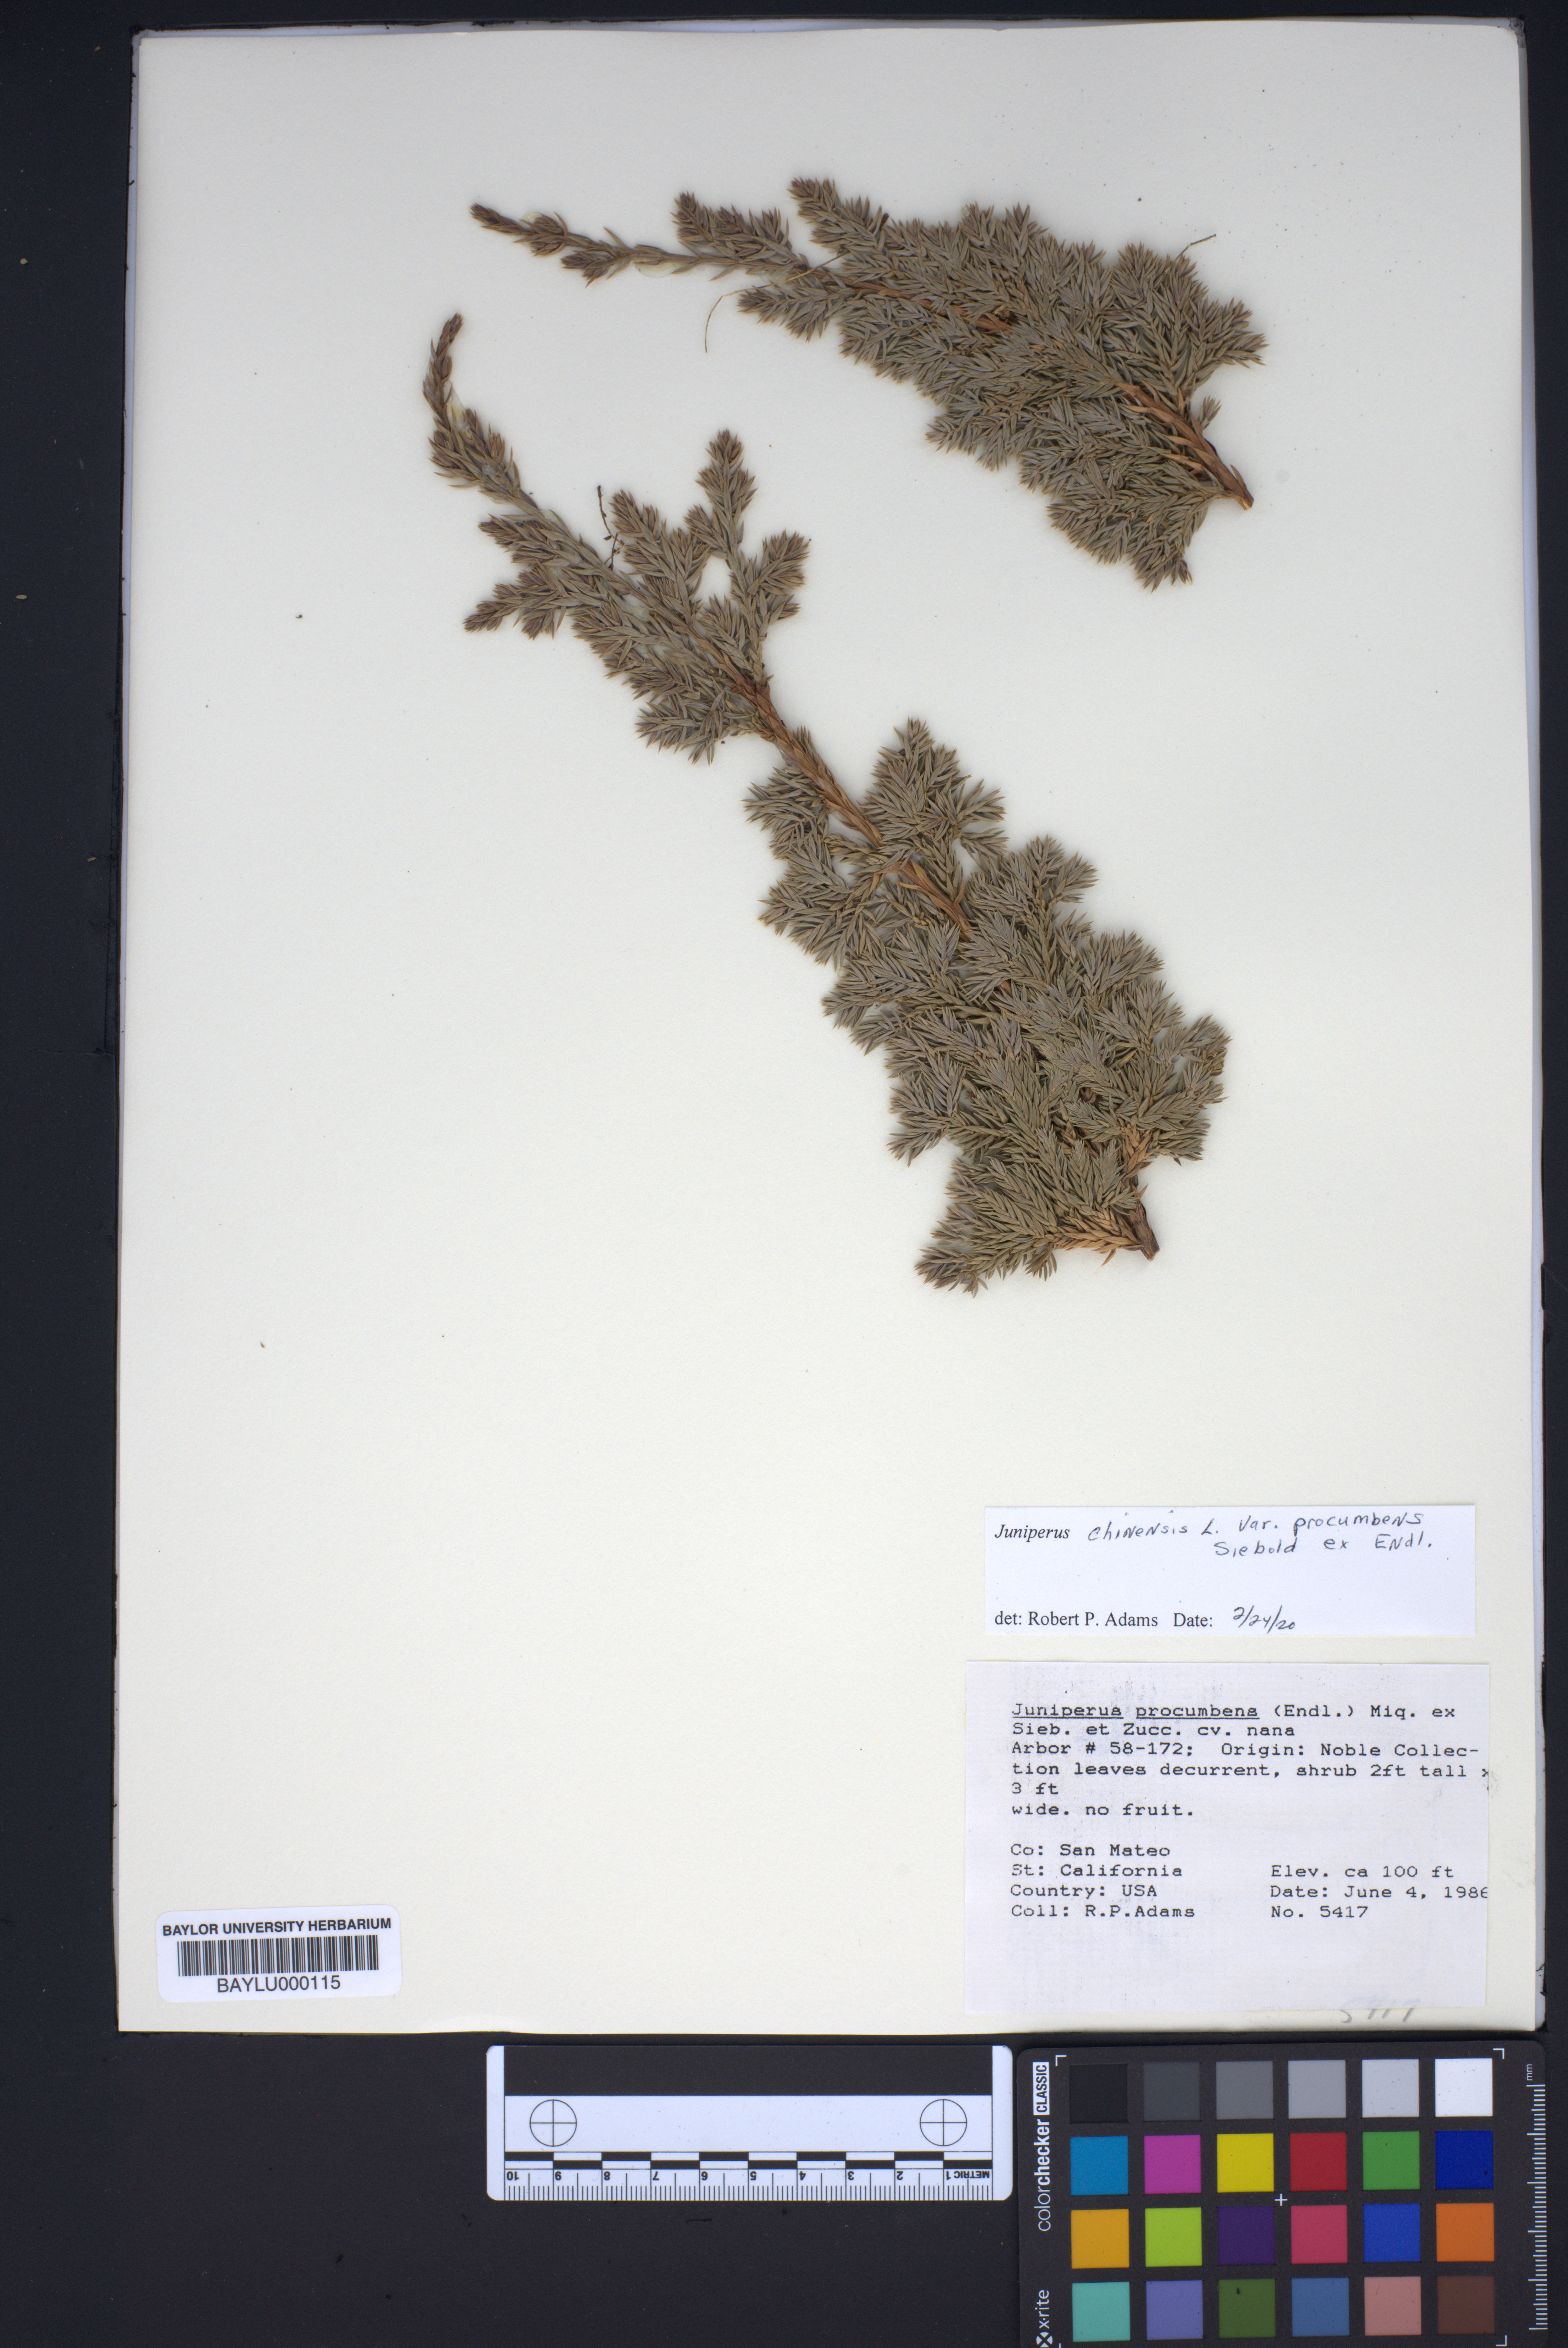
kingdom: Plantae
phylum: Tracheophyta
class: Pinopsida
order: Pinales
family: Cupressaceae
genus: Juniperus
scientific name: Juniperus procumbens
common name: Creeping juniper
